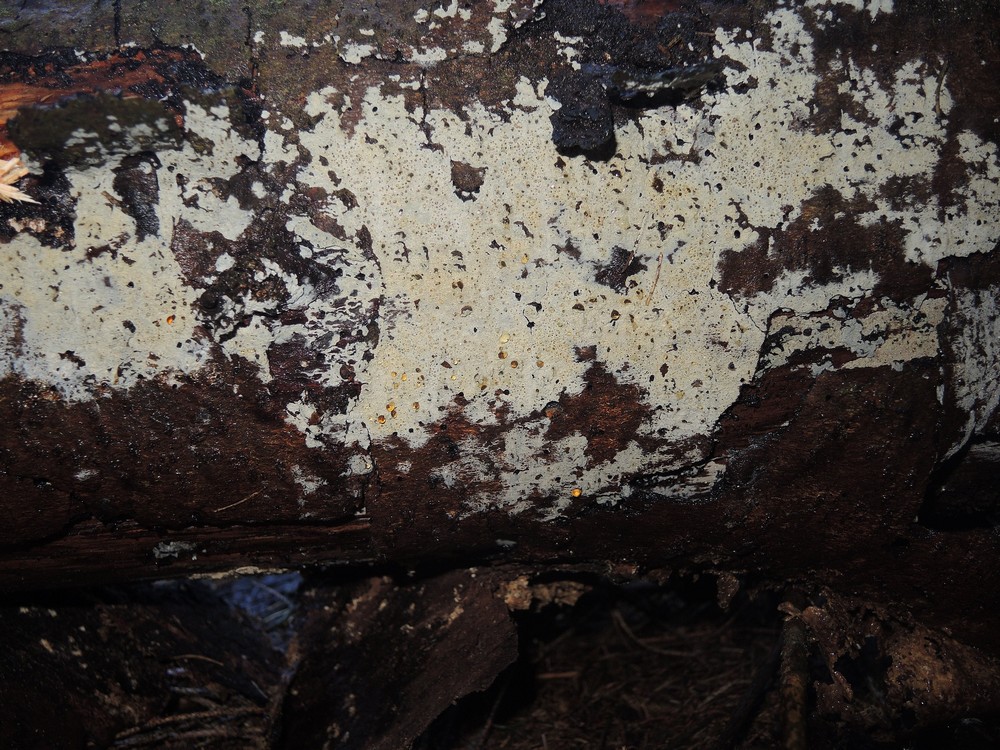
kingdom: Fungi
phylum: Basidiomycota
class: Agaricomycetes
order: Hymenochaetales
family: Rickenellaceae
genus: Peniophorella
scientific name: Peniophorella pubera
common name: dunet kalkskind
